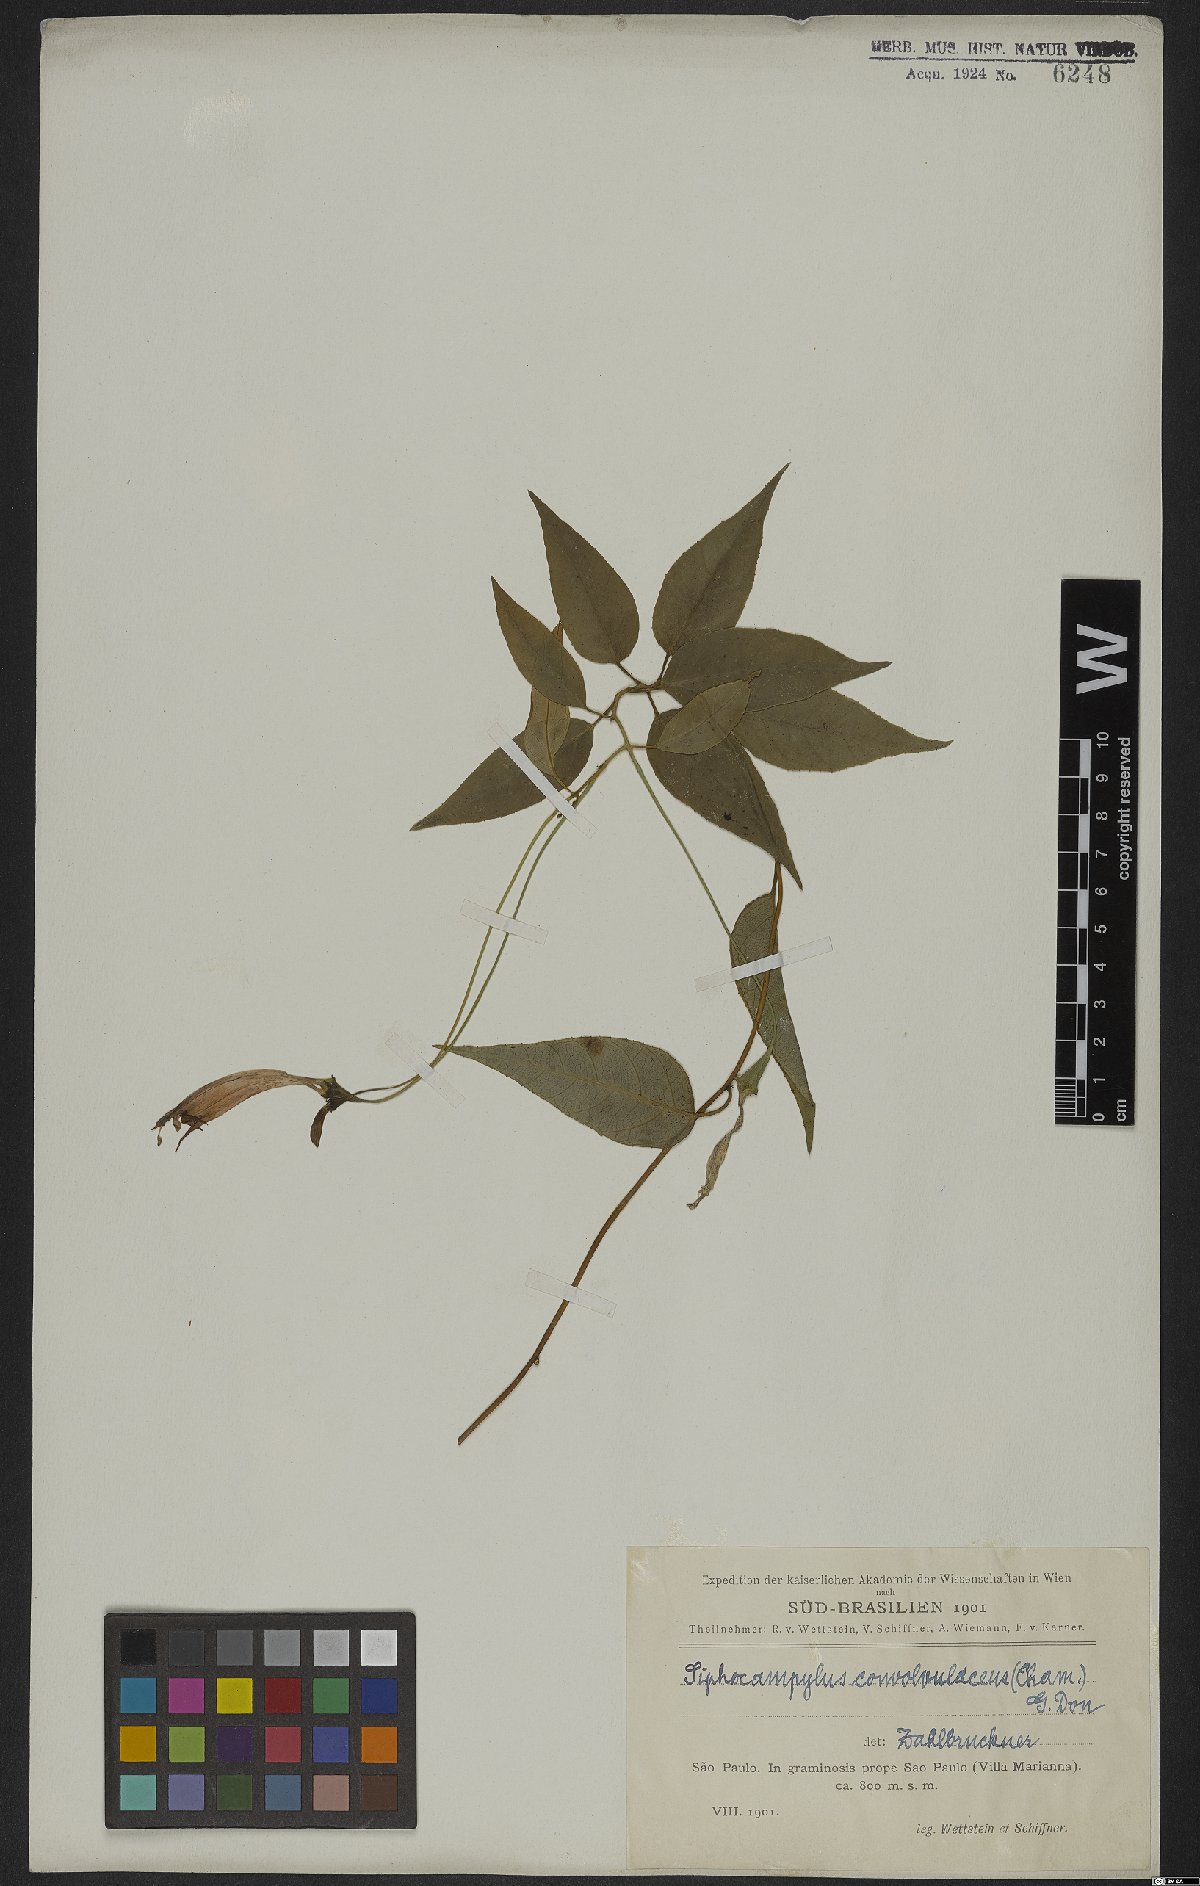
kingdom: Plantae
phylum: Tracheophyta
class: Magnoliopsida
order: Asterales
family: Campanulaceae
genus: Siphocampylus
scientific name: Siphocampylus convolvulaceus
